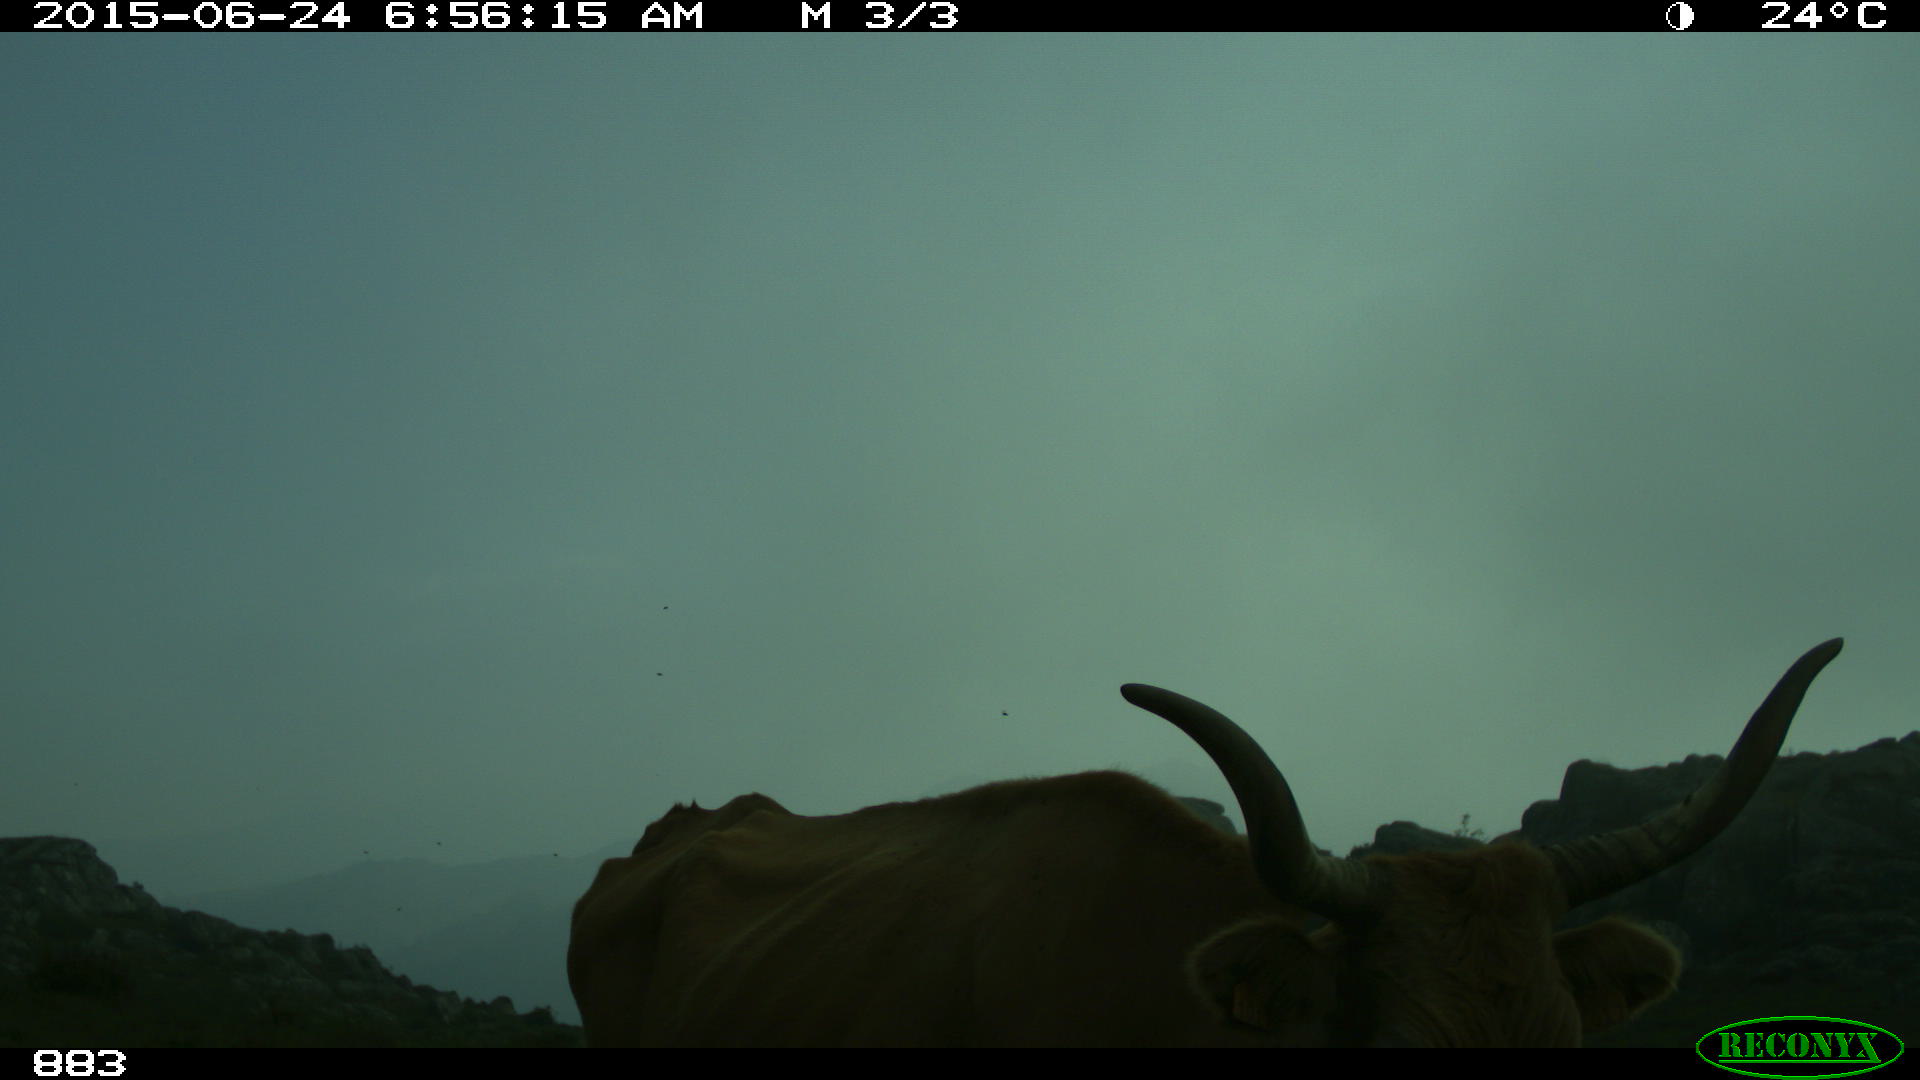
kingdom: Animalia
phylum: Chordata
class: Mammalia
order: Artiodactyla
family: Bovidae
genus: Bos
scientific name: Bos taurus
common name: Domesticated cattle
